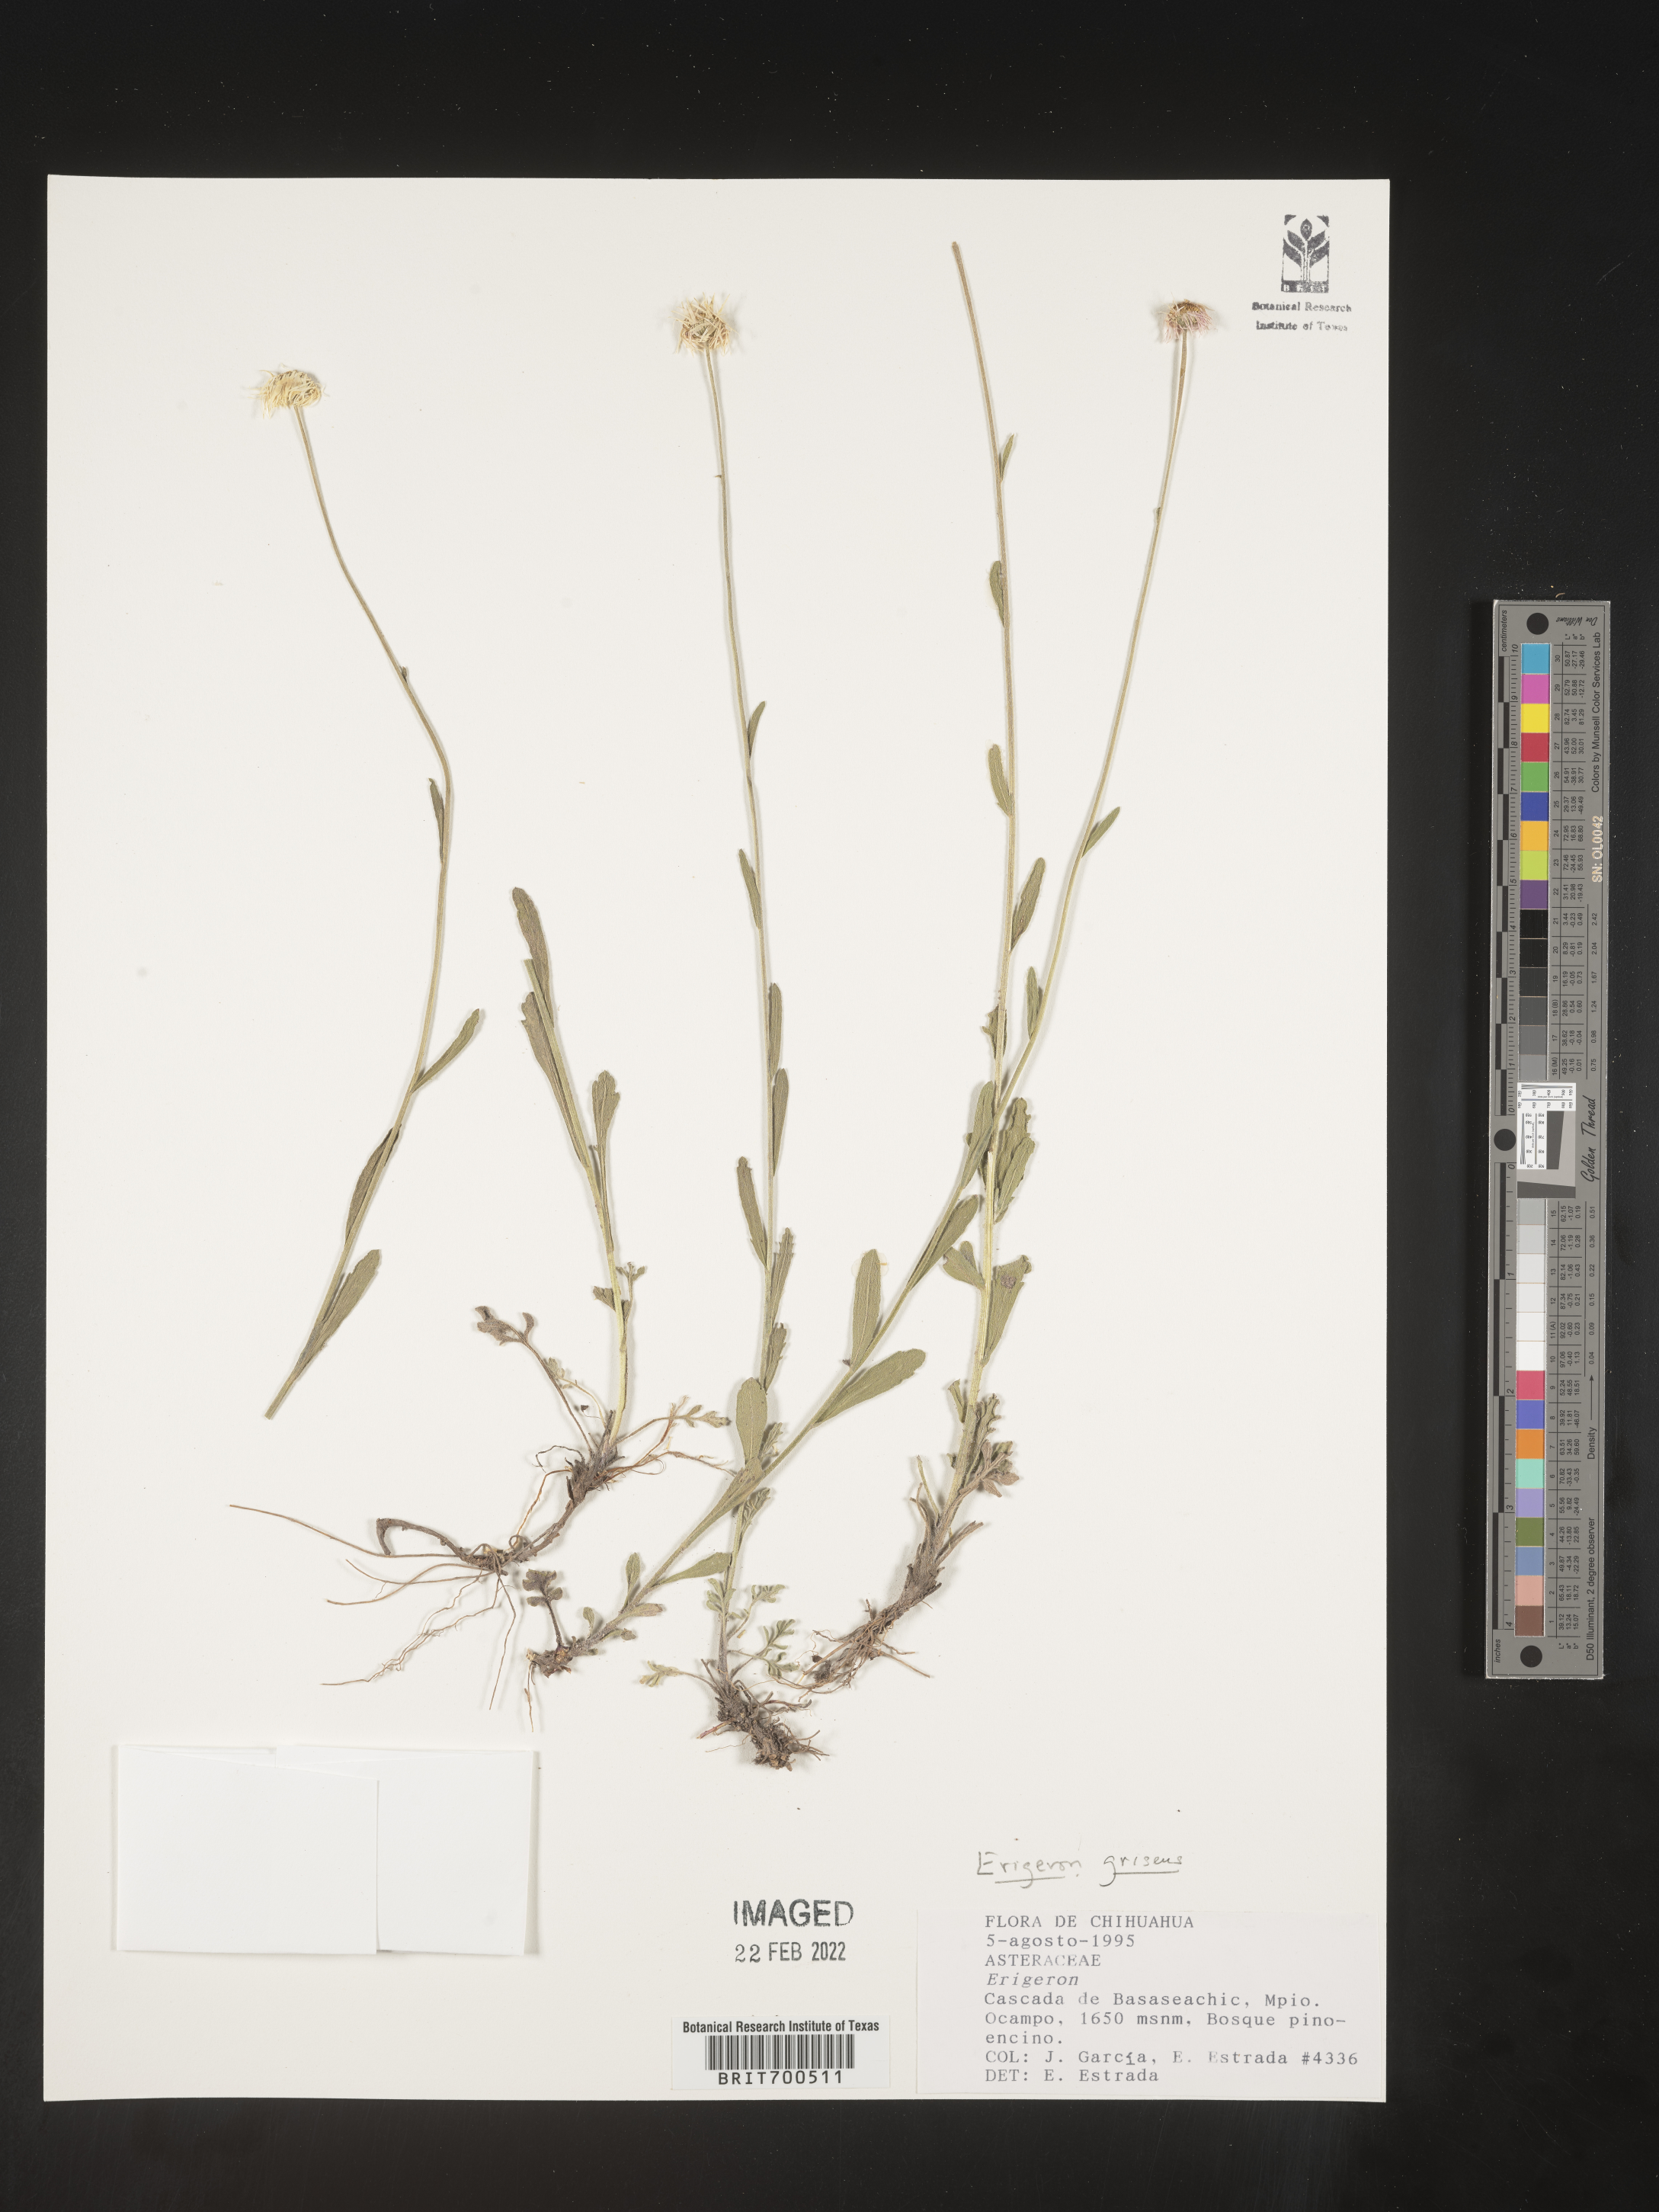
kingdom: Plantae
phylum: Tracheophyta
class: Magnoliopsida
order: Asterales
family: Asteraceae
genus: Erigeron
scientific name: Erigeron
